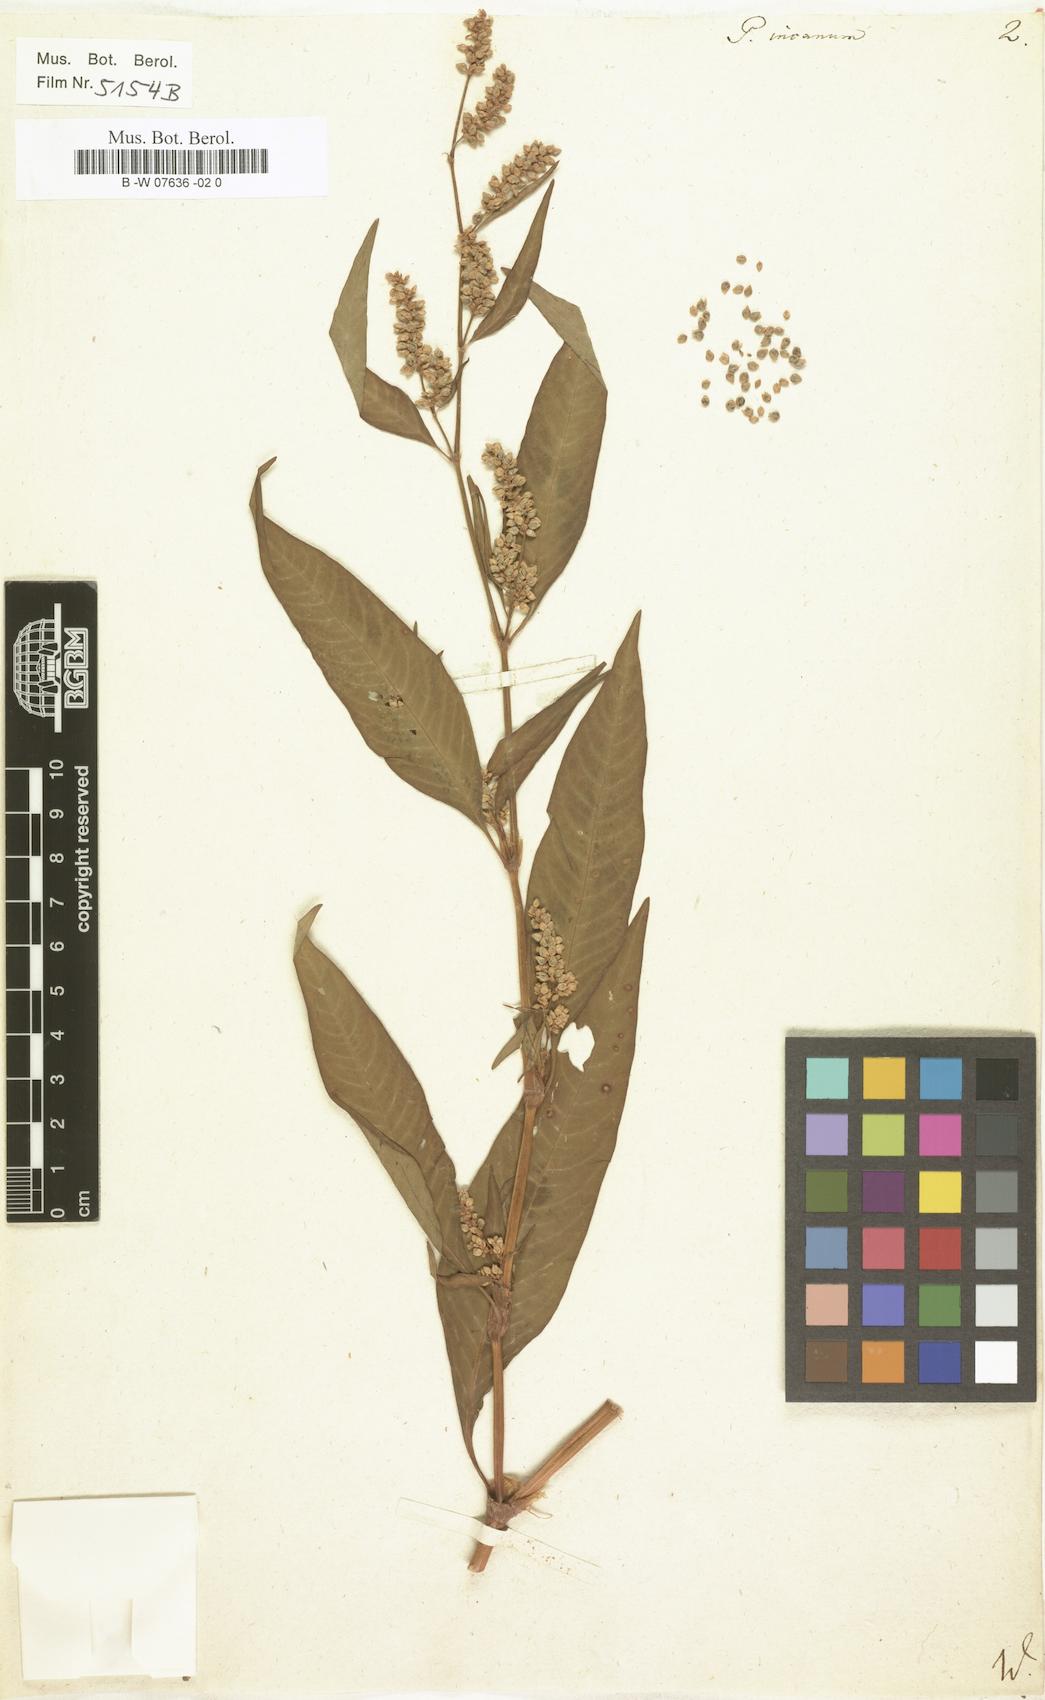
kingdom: Plantae
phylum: Tracheophyta
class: Magnoliopsida
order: Caryophyllales
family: Polygonaceae
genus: Polygonum
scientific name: Polygonum incanum
